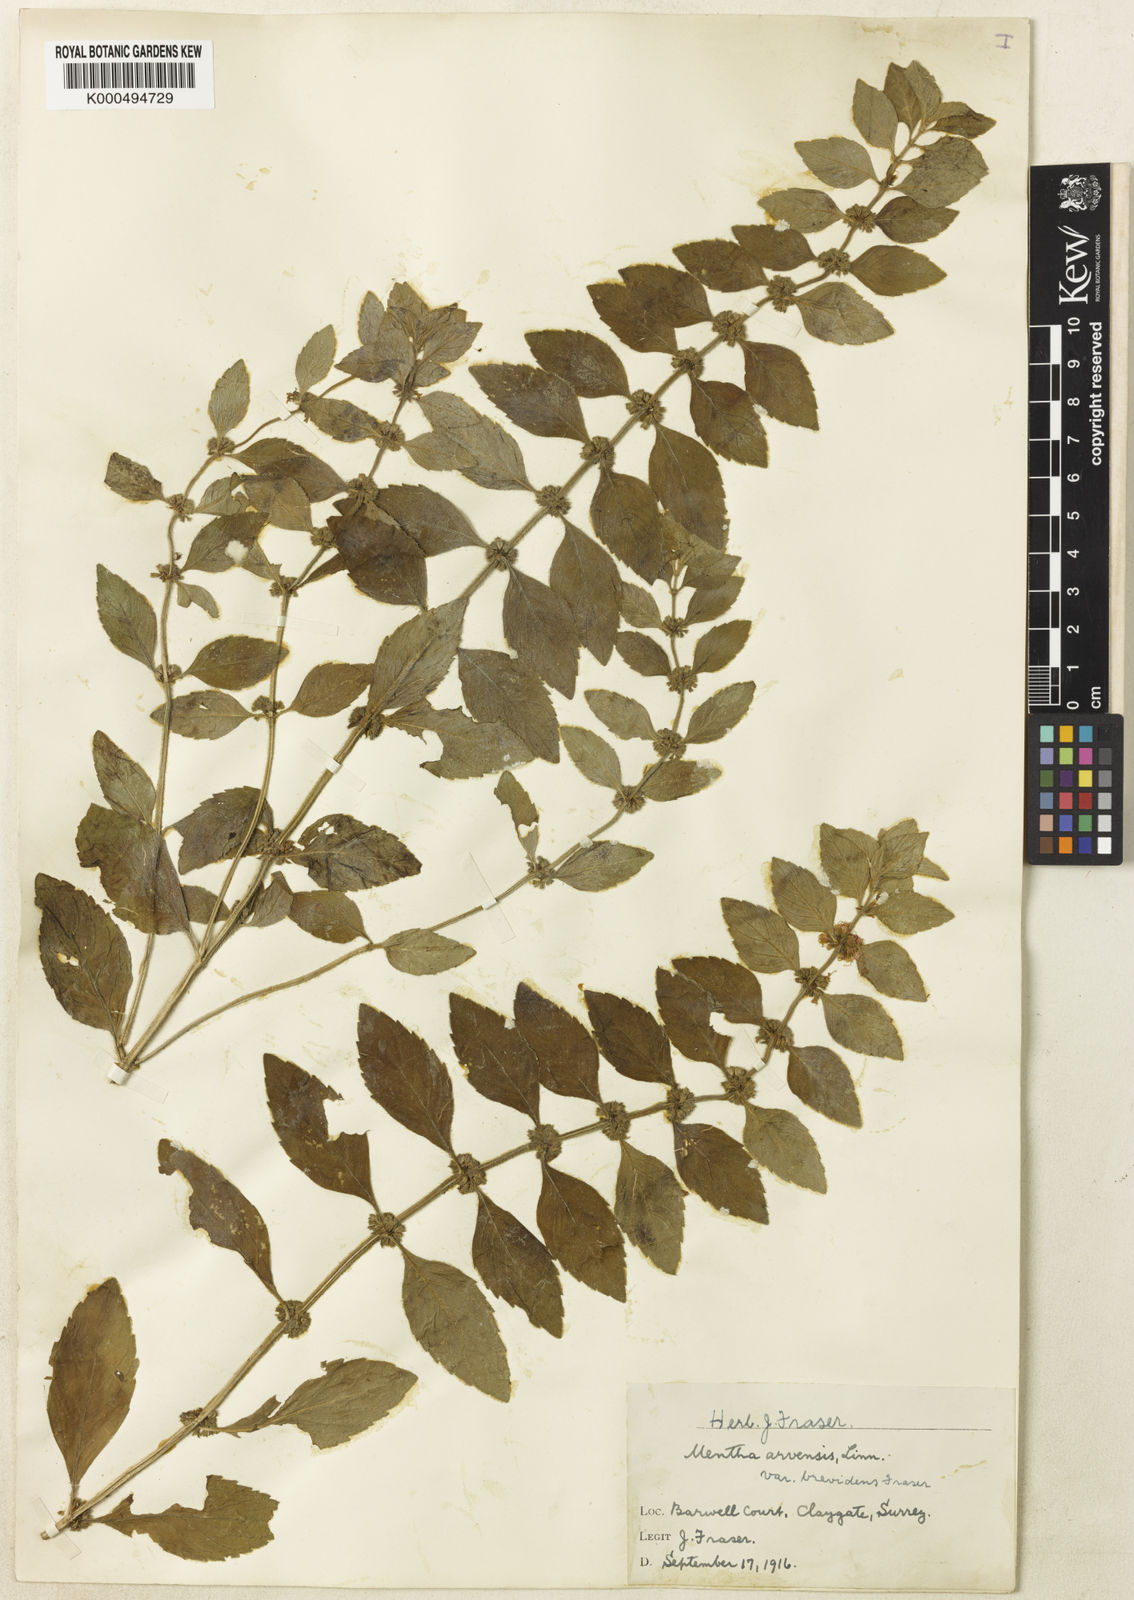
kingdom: Plantae
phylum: Tracheophyta
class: Magnoliopsida
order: Lamiales
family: Lamiaceae
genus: Mentha
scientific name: Mentha arvensis
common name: Corn mint
